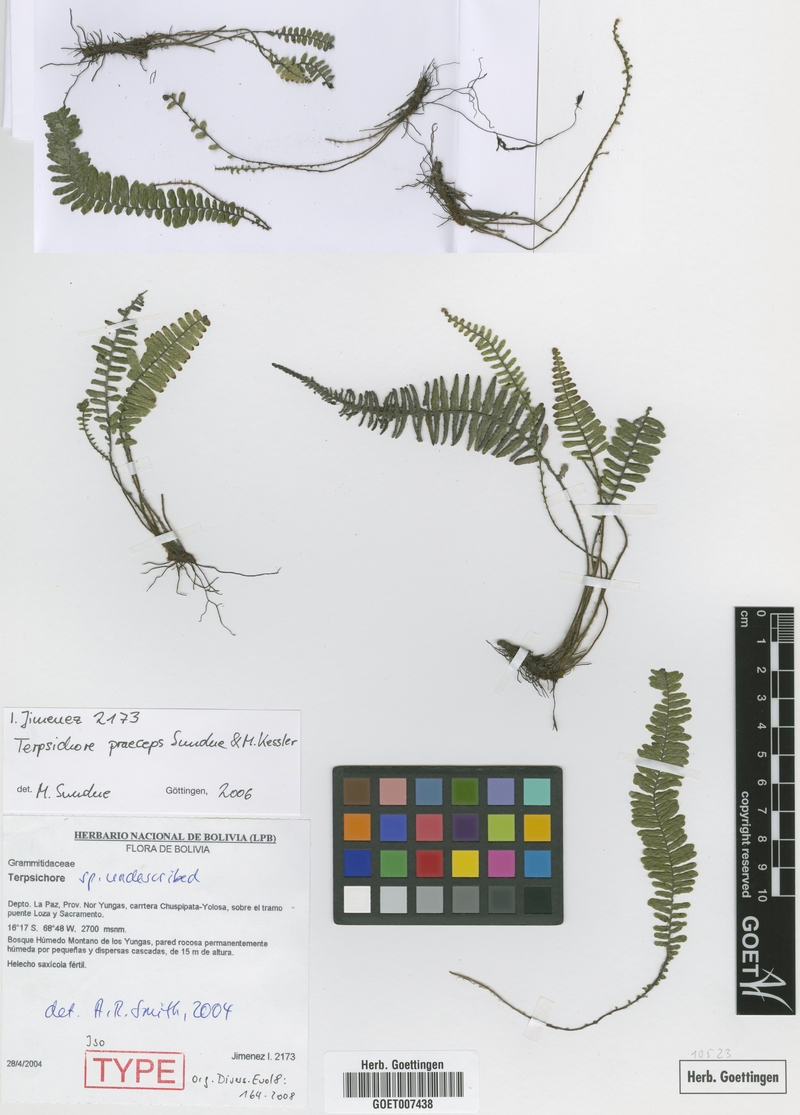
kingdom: Plantae
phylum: Tracheophyta
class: Polypodiopsida
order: Polypodiales
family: Polypodiaceae
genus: Mycopteris
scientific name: Mycopteris praeceps
